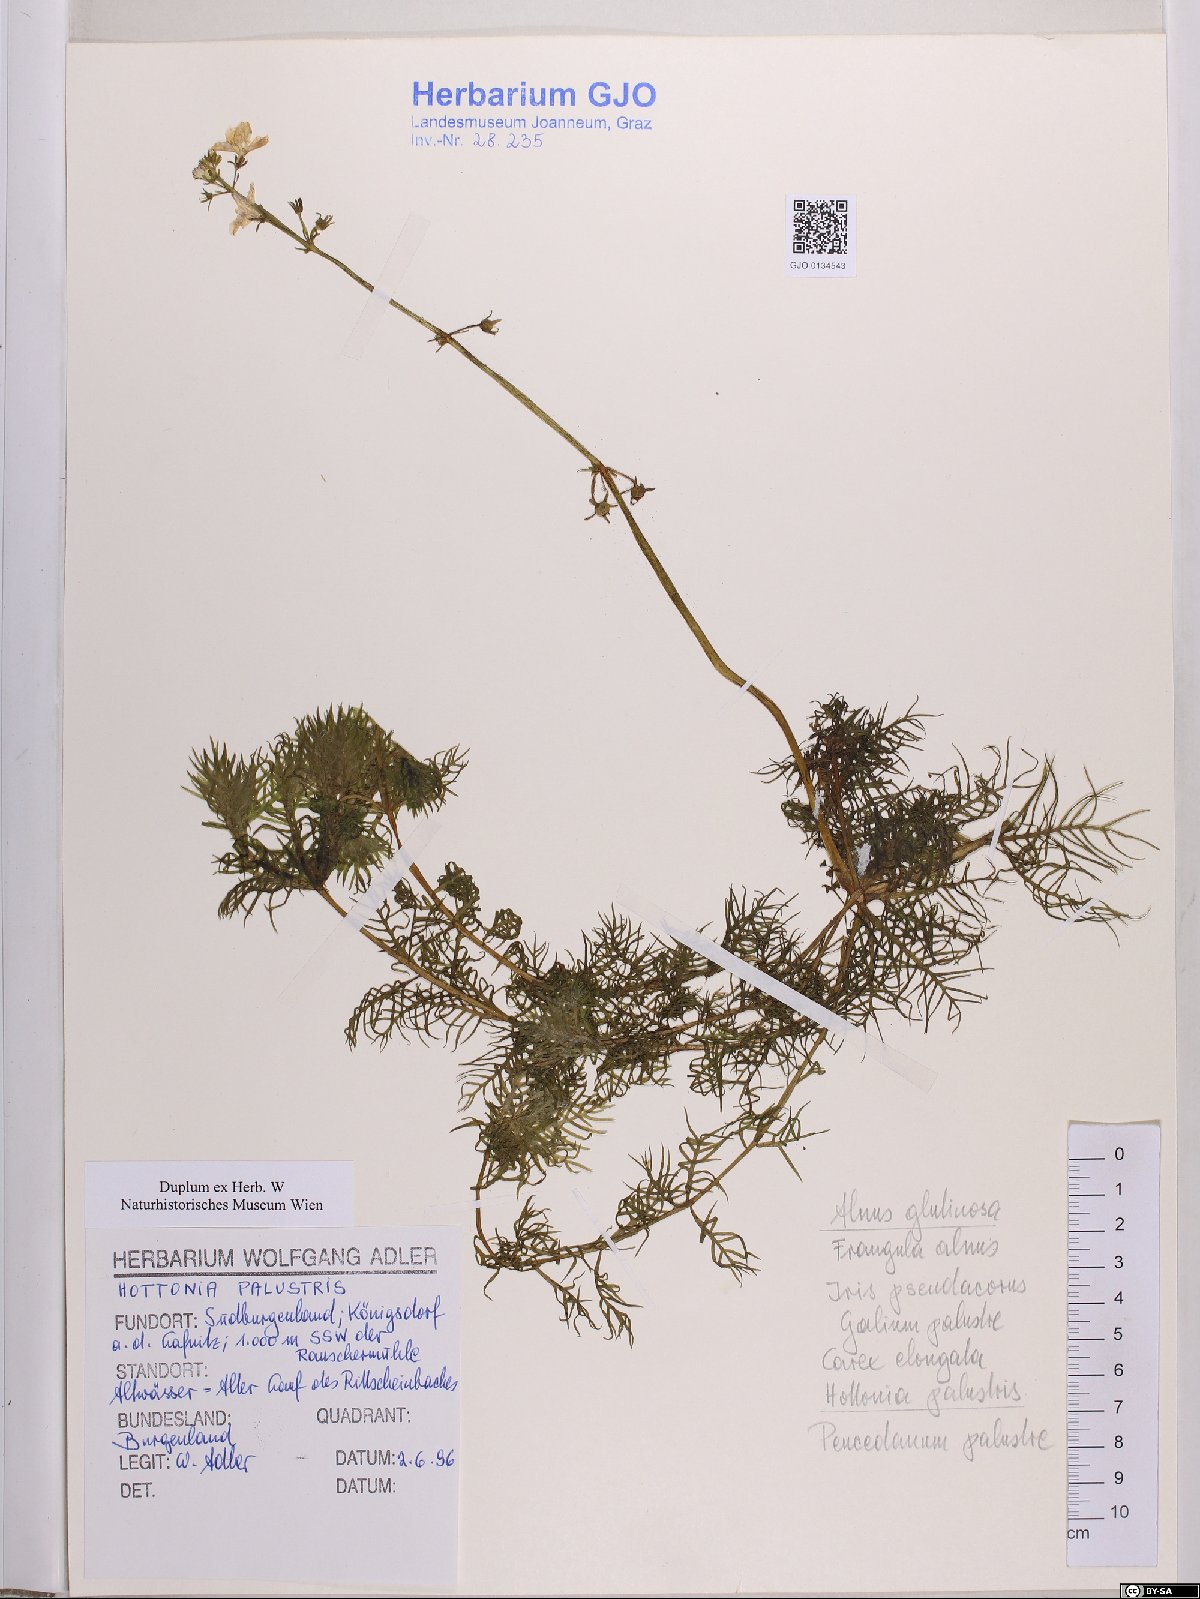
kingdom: Plantae
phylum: Tracheophyta
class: Magnoliopsida
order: Ericales
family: Primulaceae
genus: Hottonia
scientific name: Hottonia palustris
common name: Water-violet
